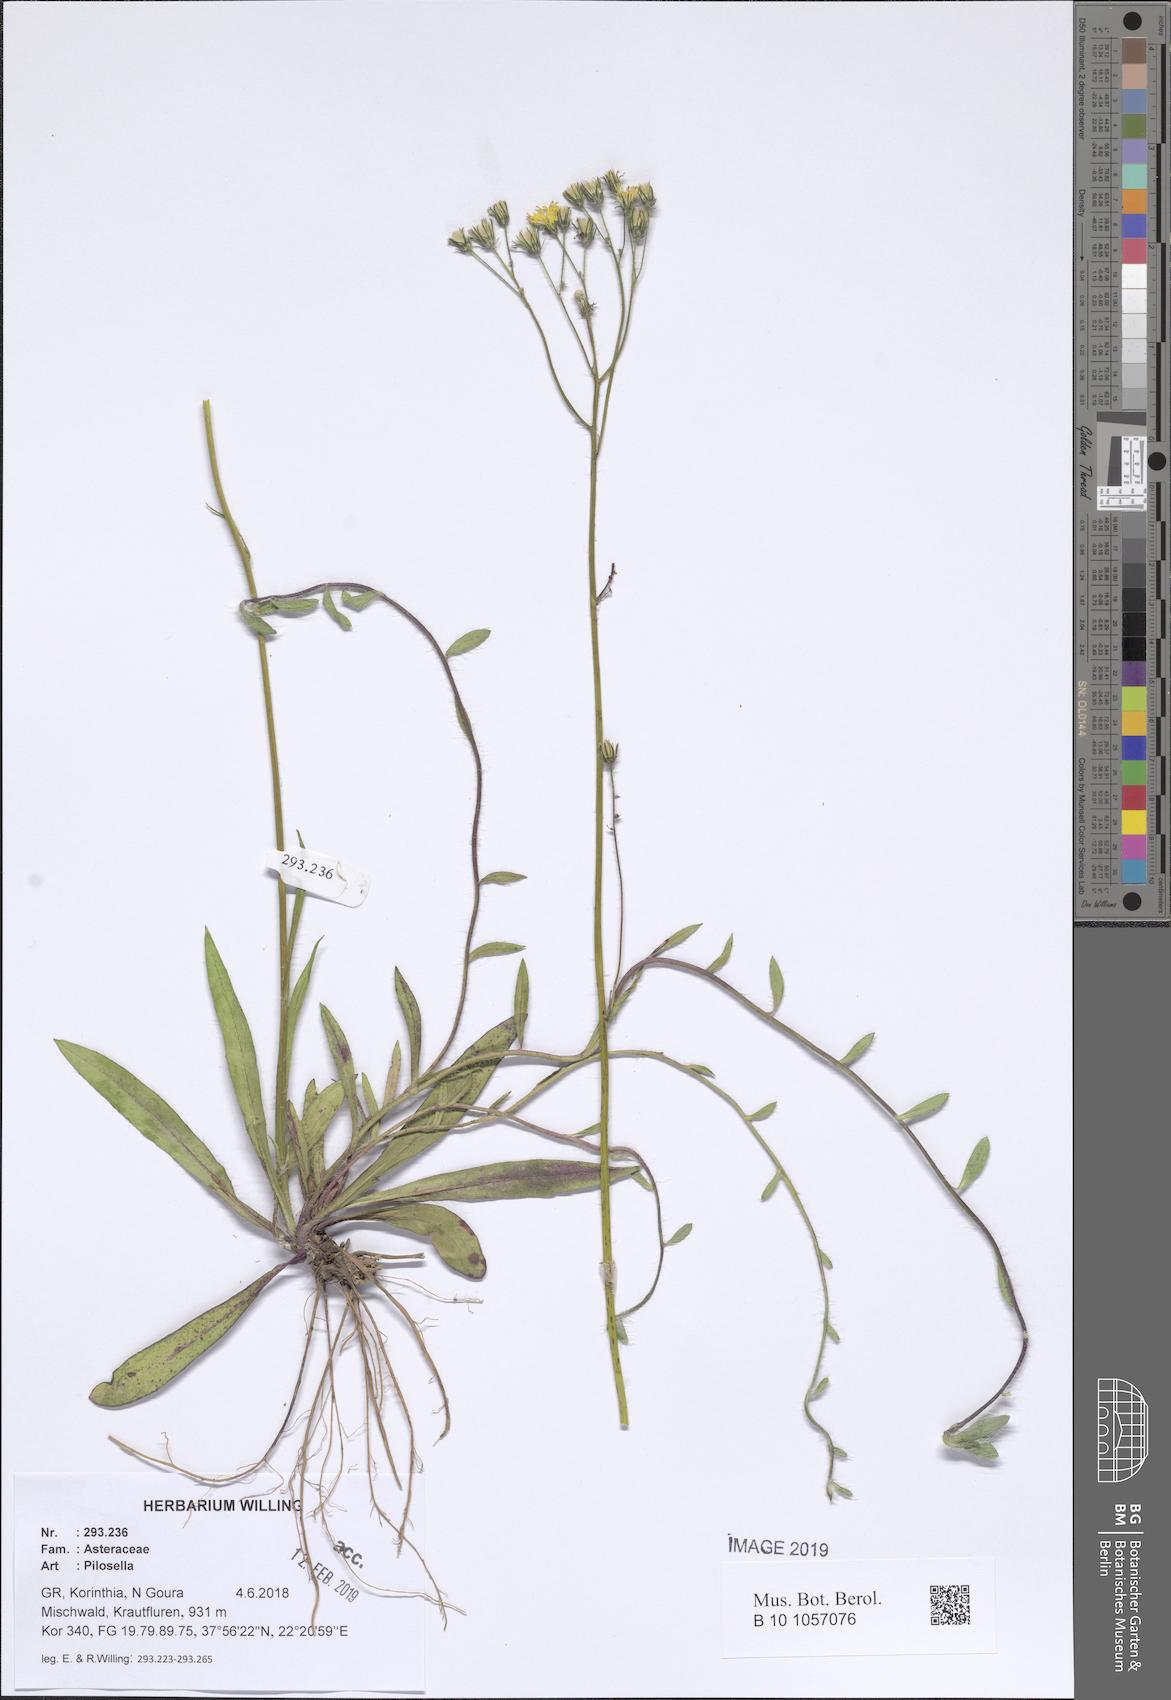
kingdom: Plantae
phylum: Tracheophyta
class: Magnoliopsida
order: Asterales
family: Asteraceae
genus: Pilosella
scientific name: Pilosella
